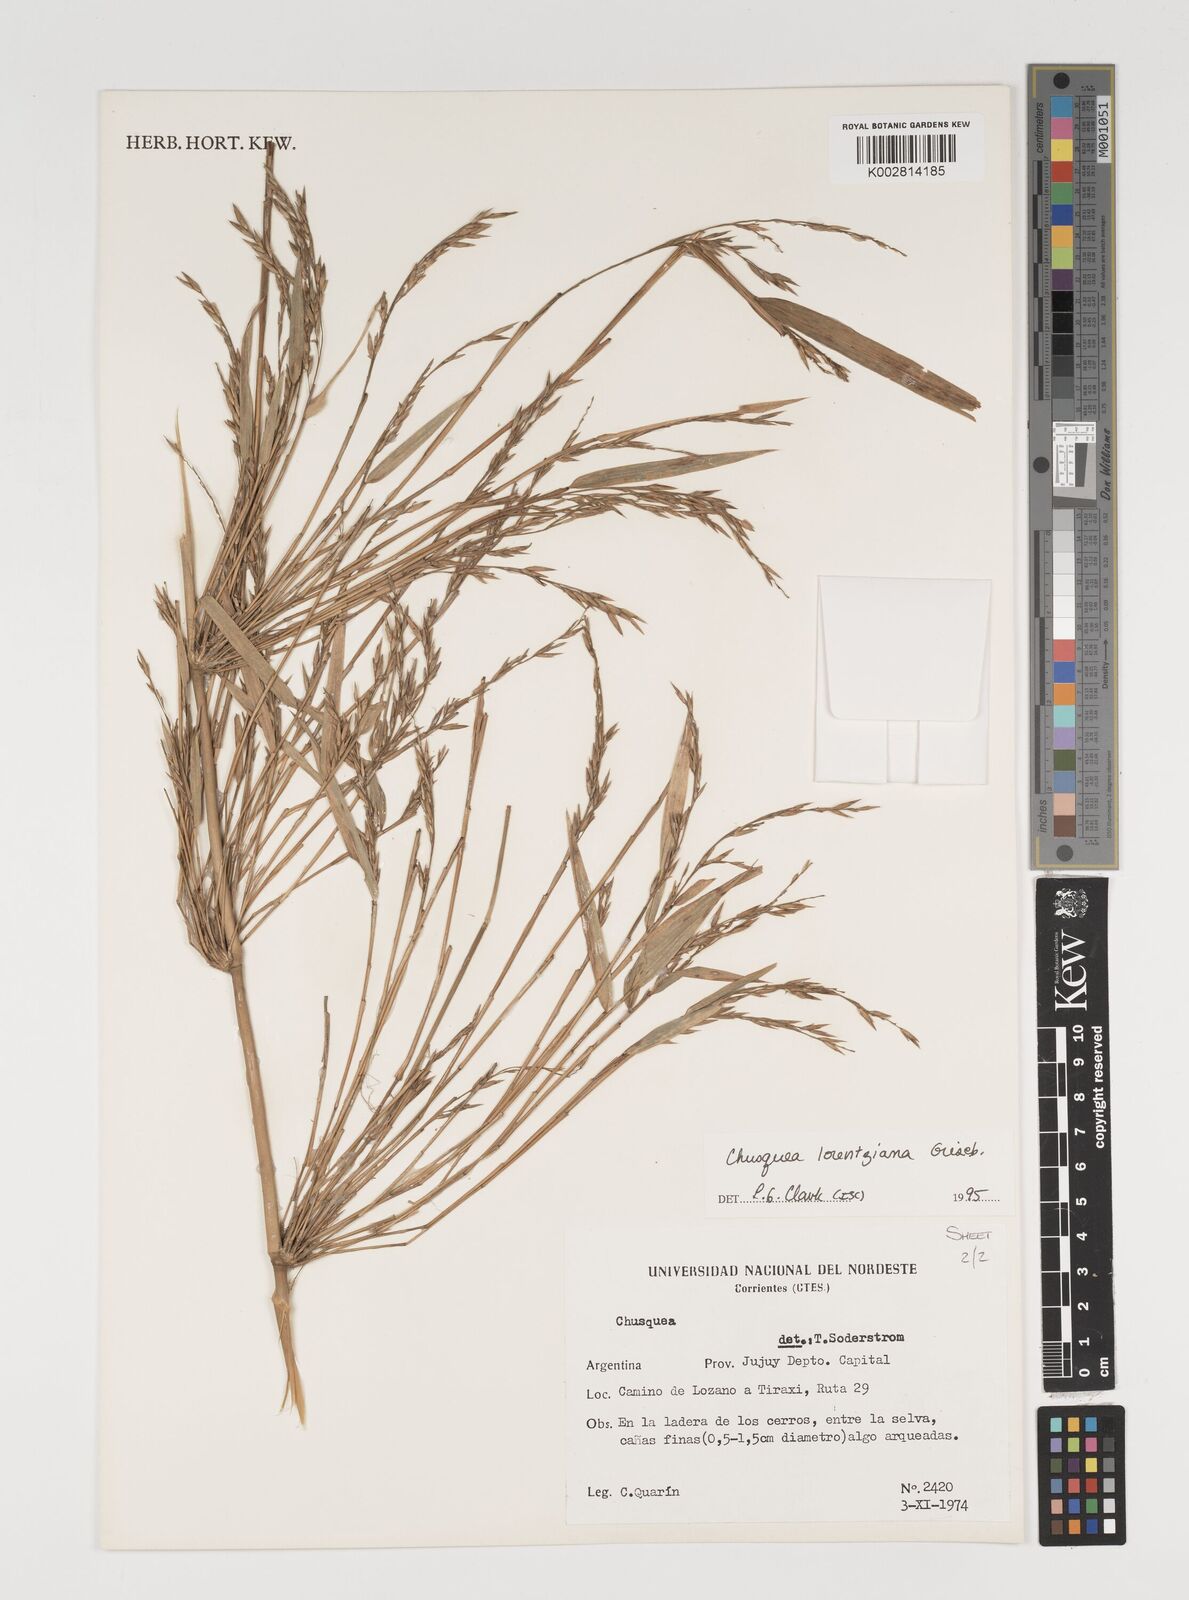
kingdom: Plantae
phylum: Tracheophyta
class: Liliopsida
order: Poales
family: Poaceae
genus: Chusquea
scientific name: Chusquea lorentziana
